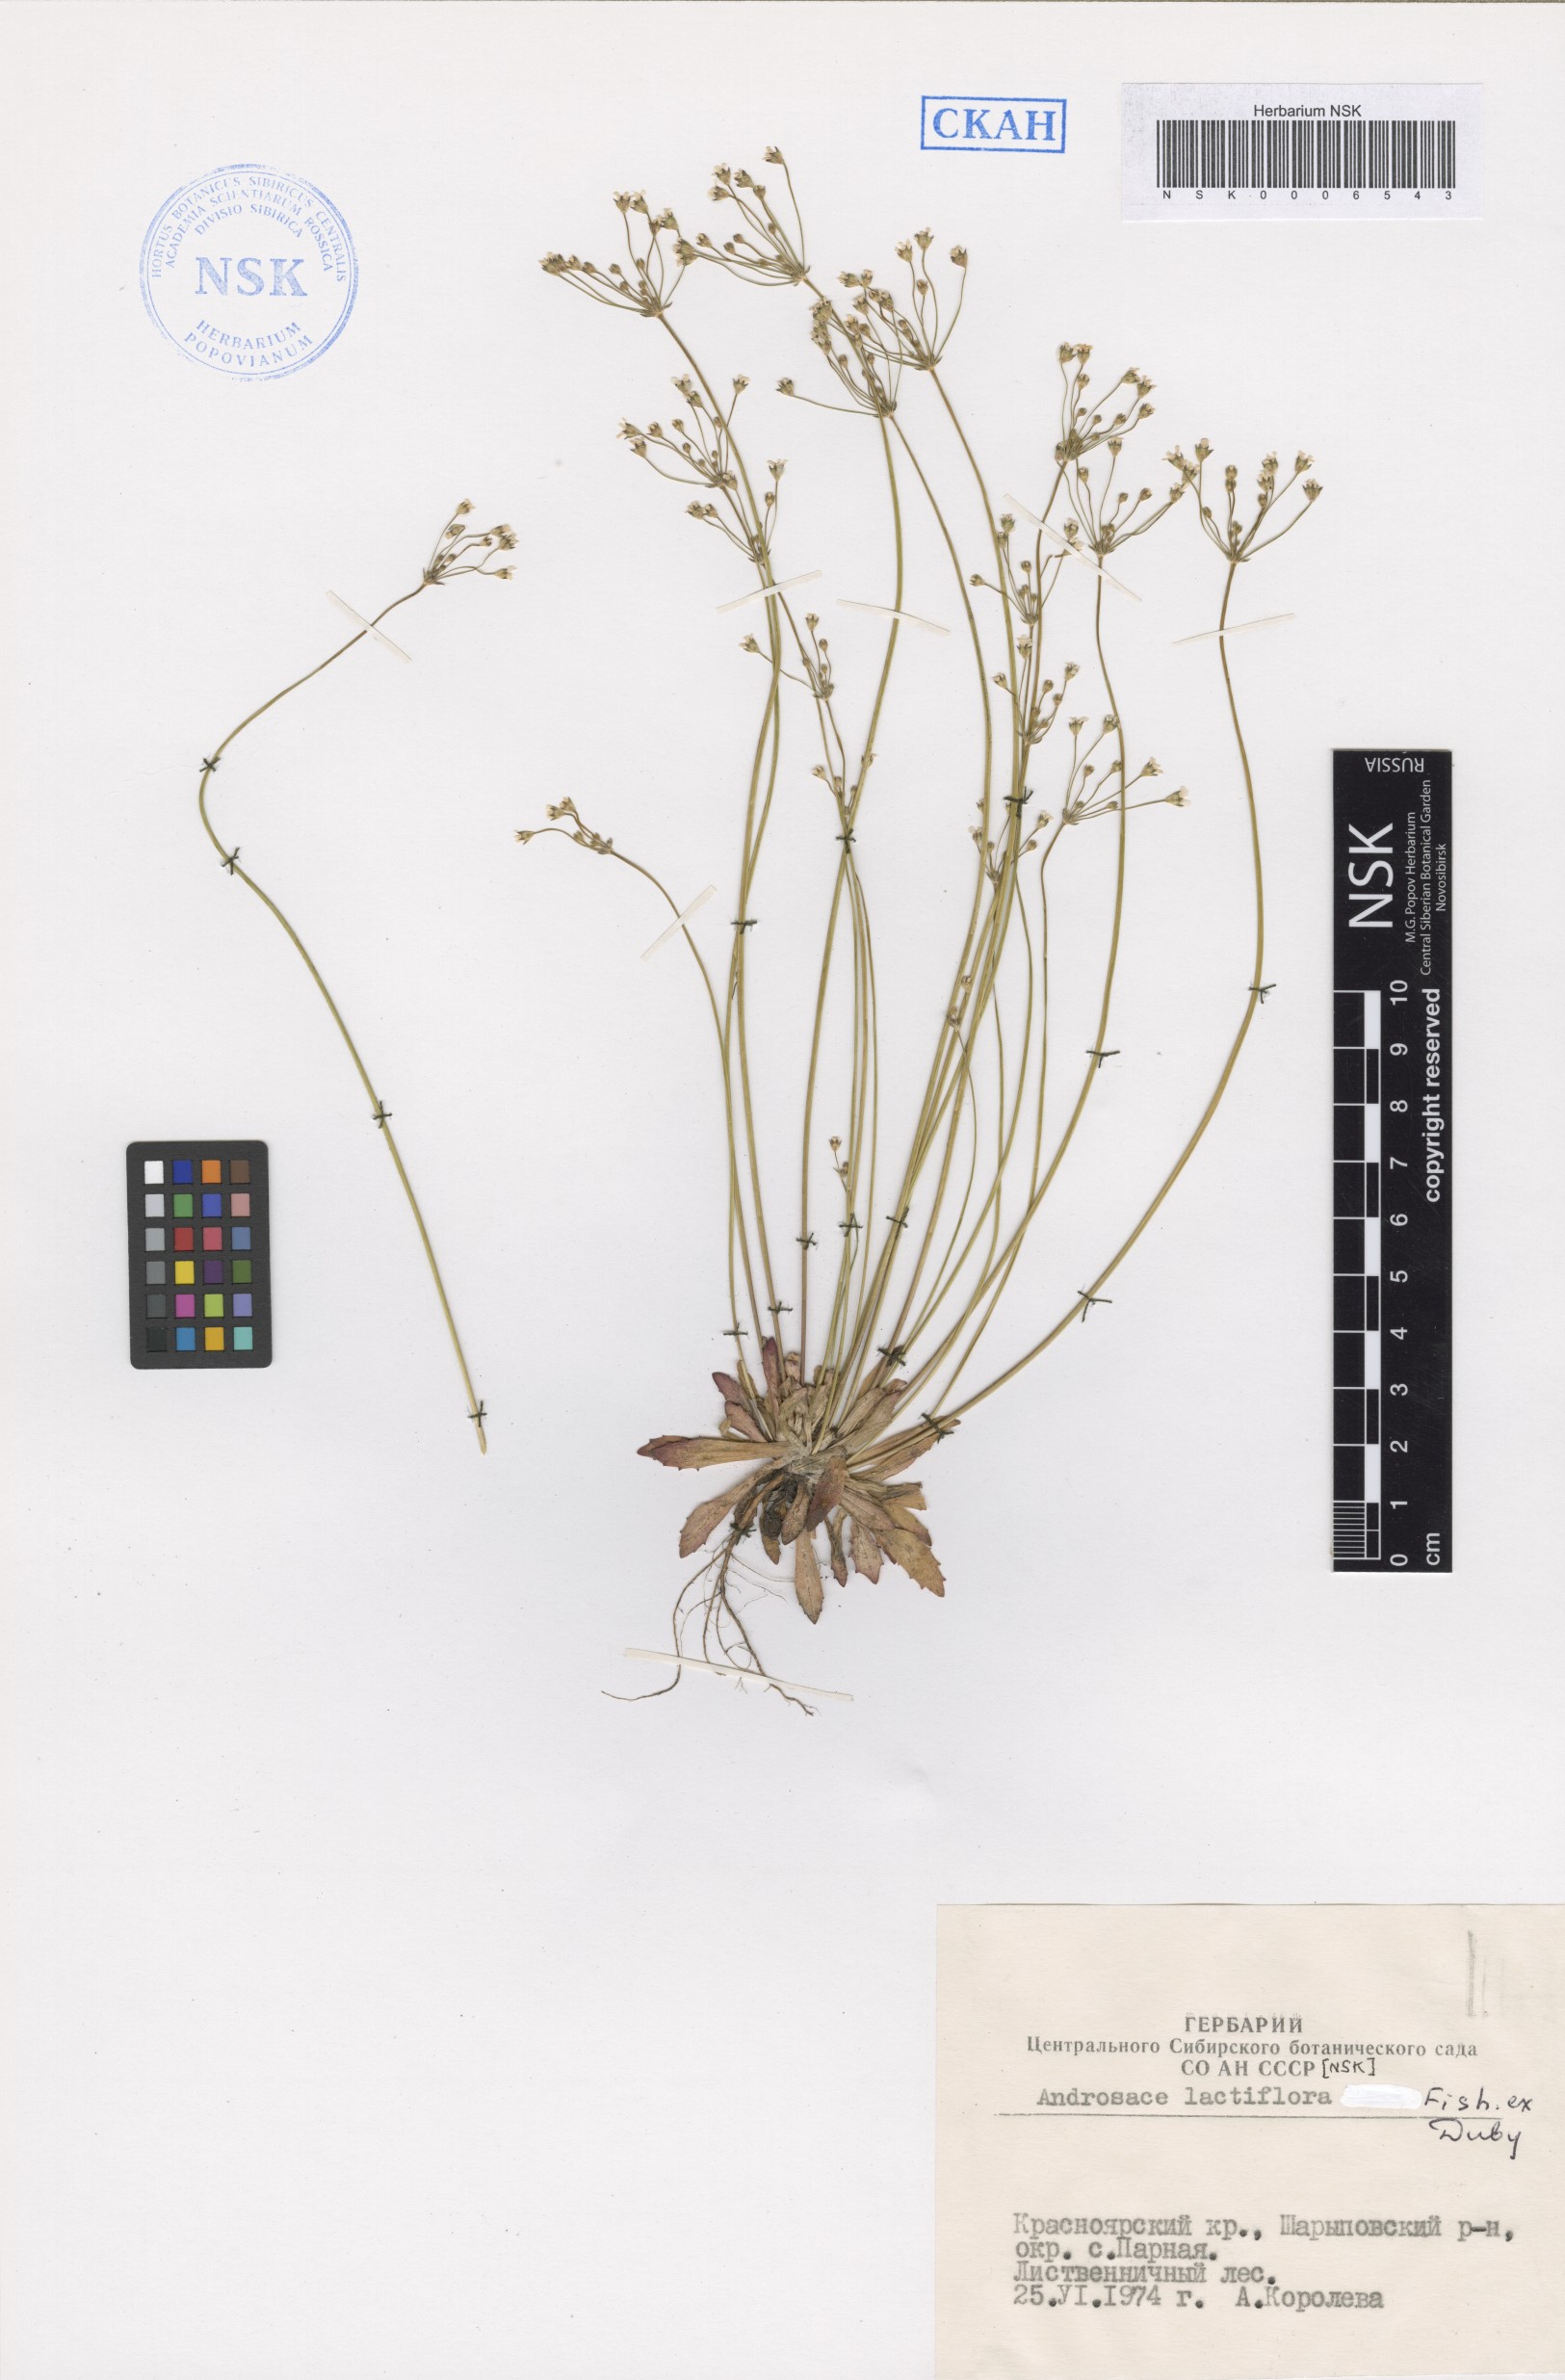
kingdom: Plantae
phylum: Tracheophyta
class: Magnoliopsida
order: Ericales
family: Primulaceae
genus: Androsace
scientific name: Androsace lactiflora
